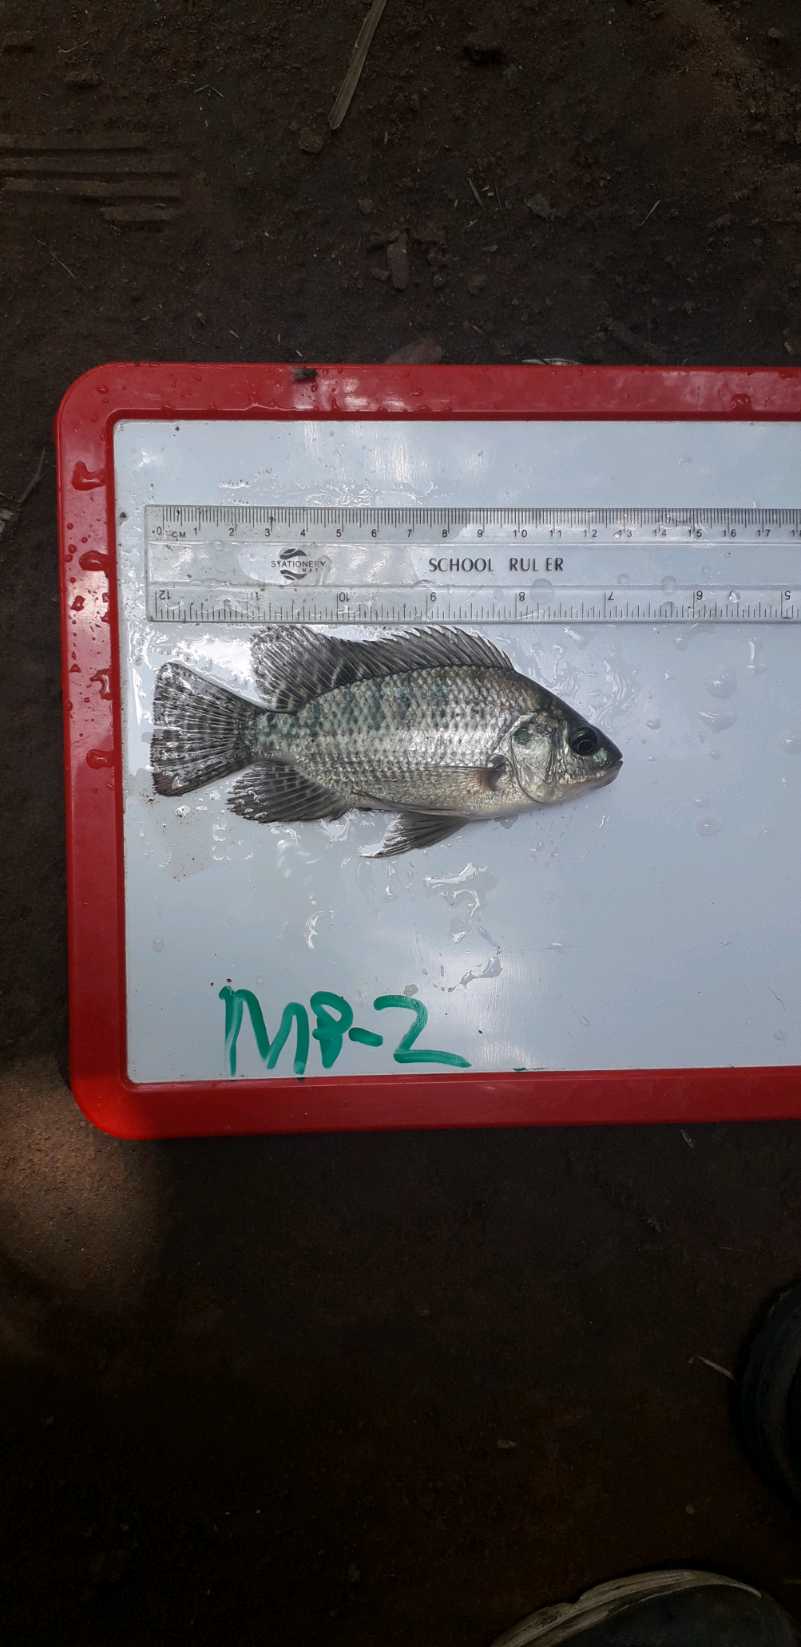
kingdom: Animalia
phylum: Chordata
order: Perciformes
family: Cichlidae
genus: Oreochromis
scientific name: Oreochromis niloticus
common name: Nile tilapia
